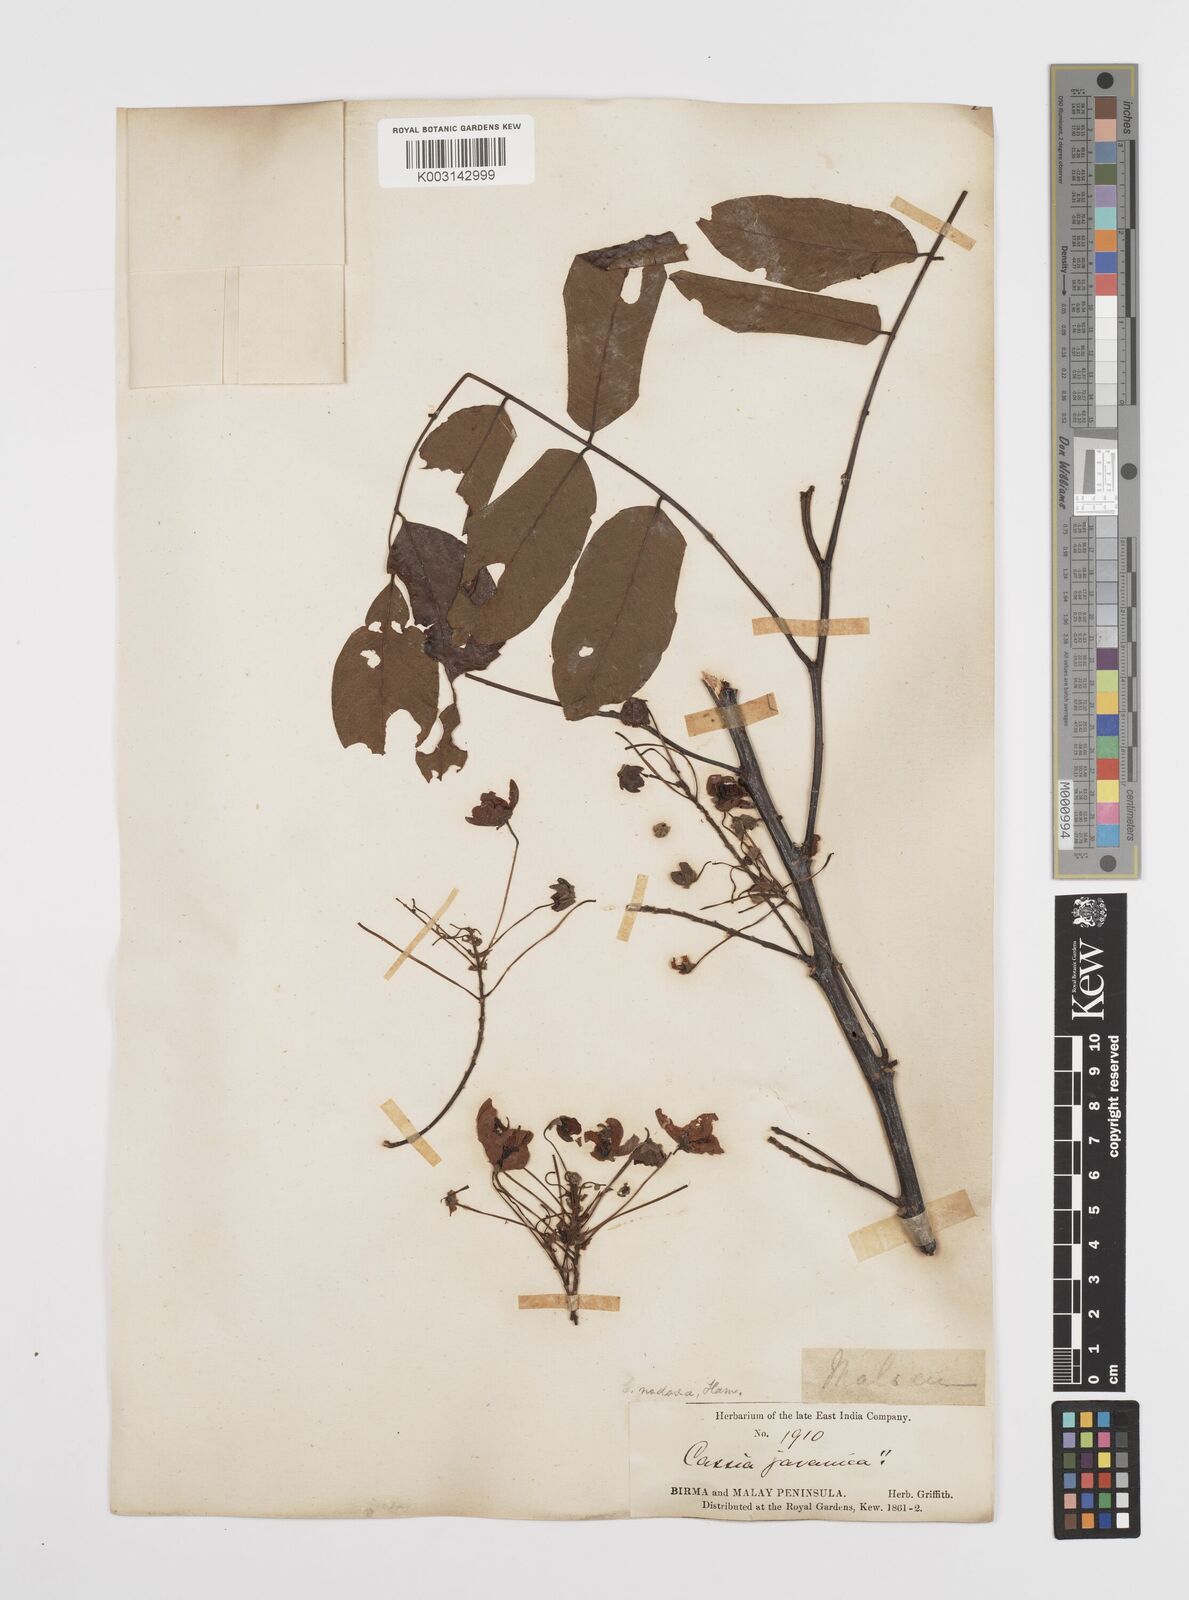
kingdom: Plantae
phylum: Tracheophyta
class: Magnoliopsida
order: Fabales
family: Fabaceae
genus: Cassia
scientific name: Cassia javanica
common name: Apple blossom
